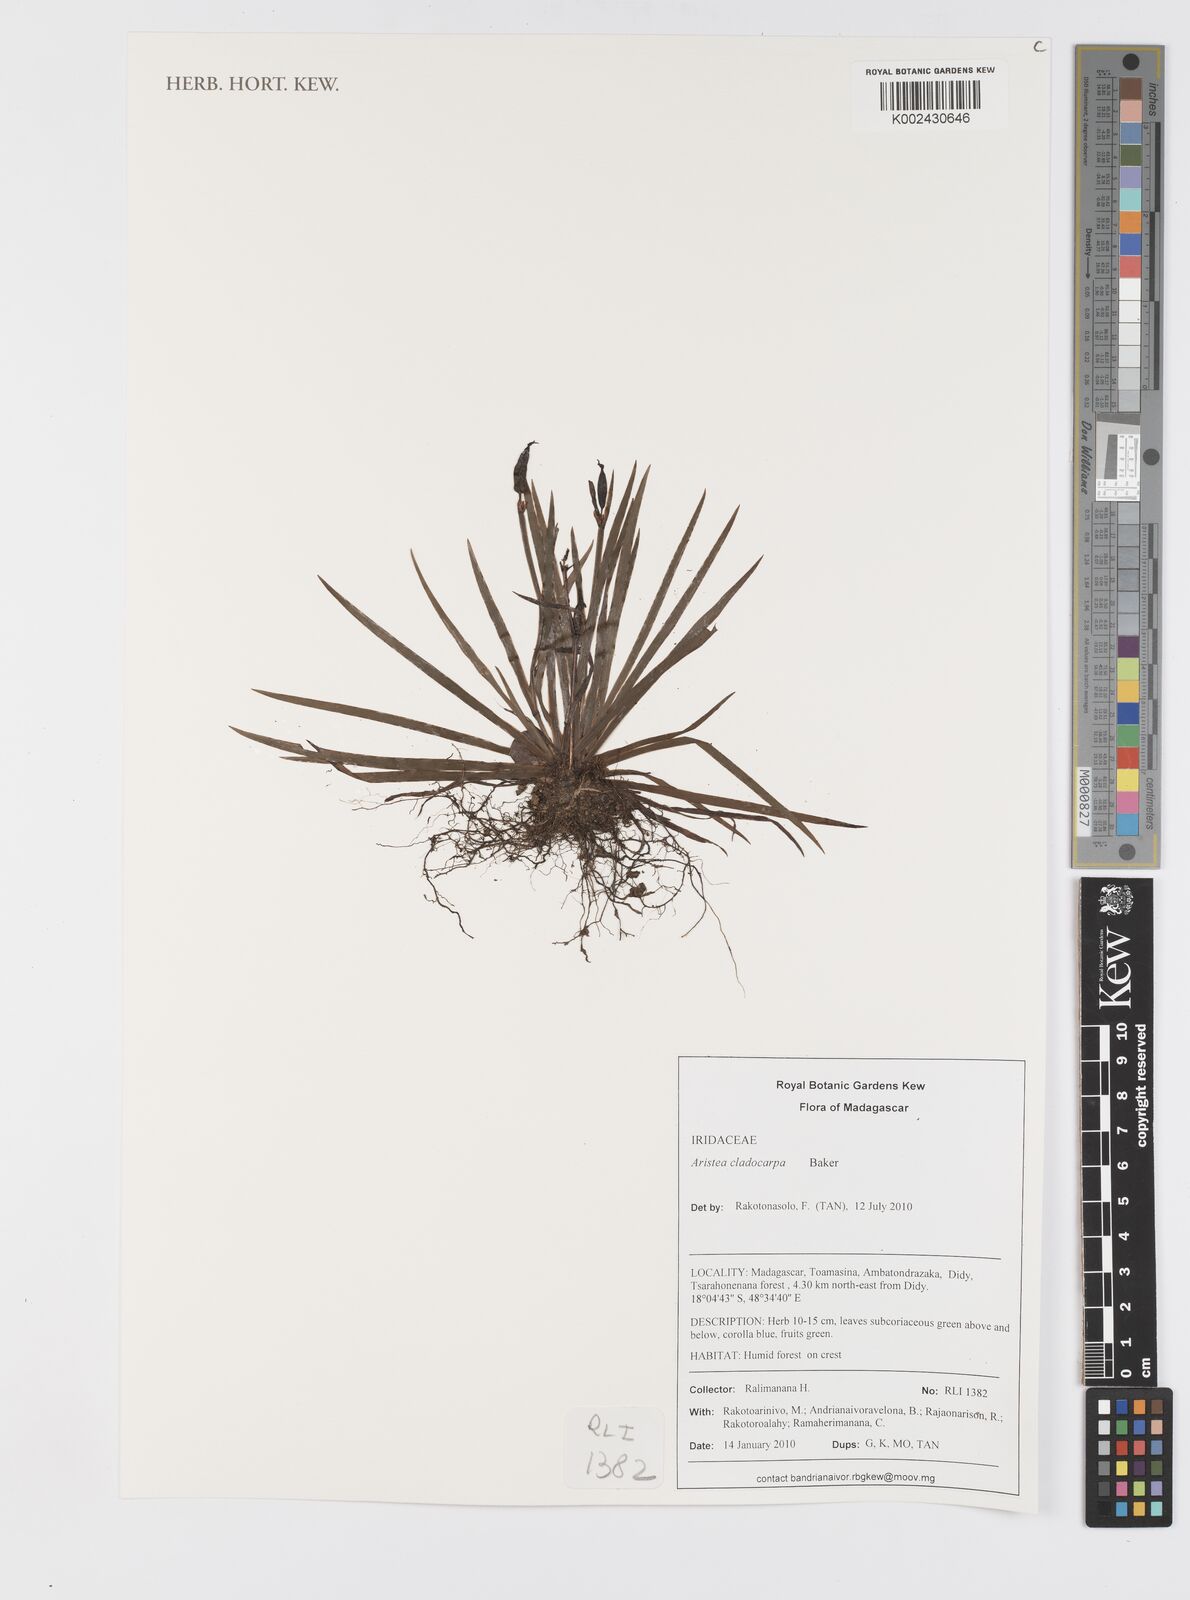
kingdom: Plantae
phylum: Tracheophyta
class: Liliopsida
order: Asparagales
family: Iridaceae
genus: Aristea
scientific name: Aristea cladocarpa
